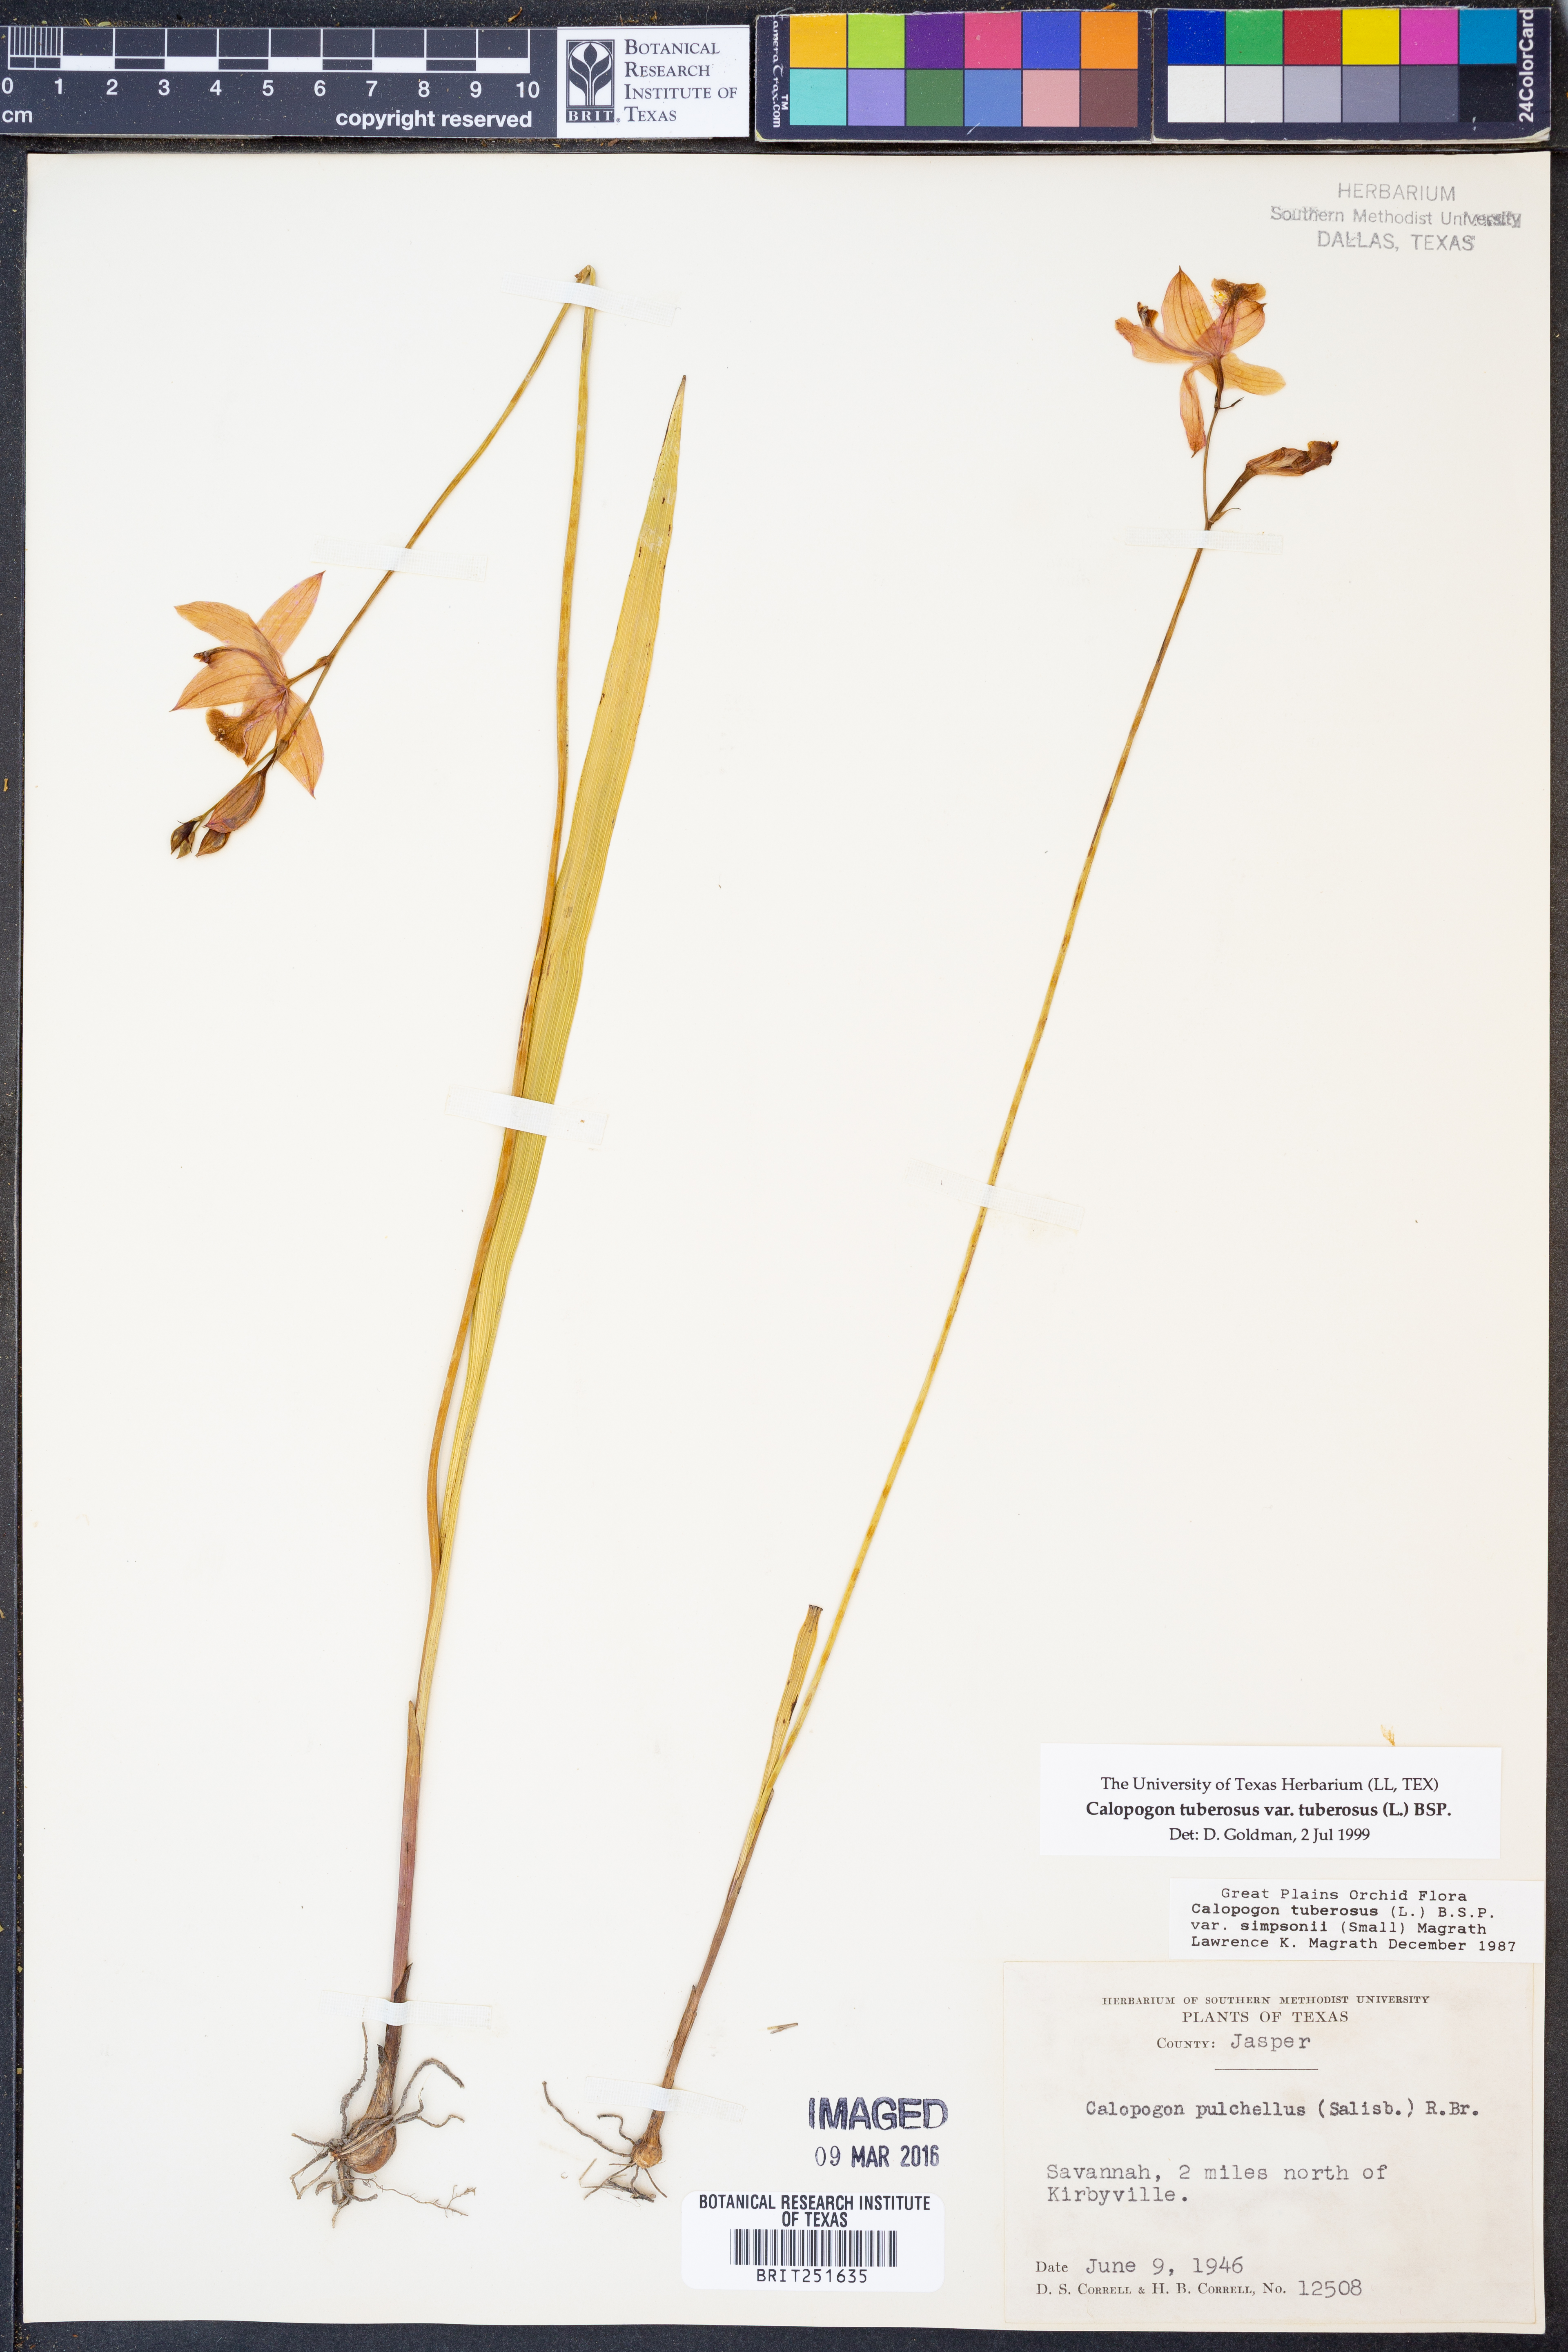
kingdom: Plantae
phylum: Tracheophyta
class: Liliopsida
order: Asparagales
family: Orchidaceae
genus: Calopogon
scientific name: Calopogon tuberosus
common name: Grass-pink
